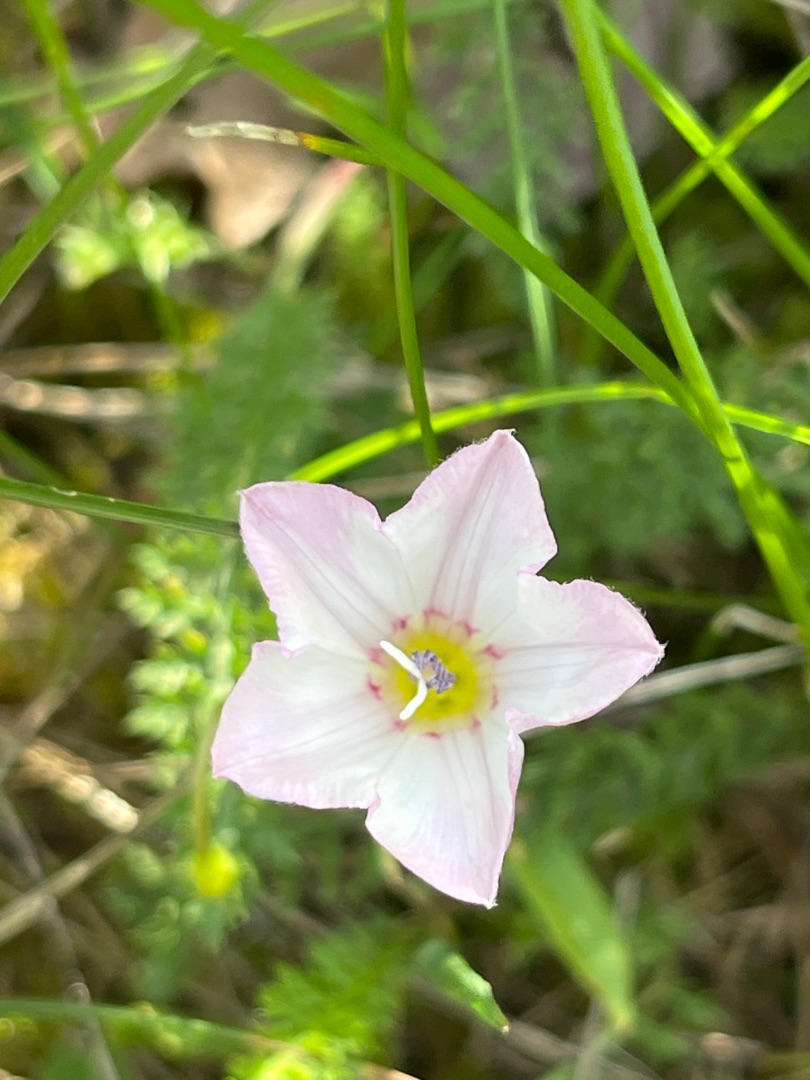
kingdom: Plantae
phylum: Tracheophyta
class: Magnoliopsida
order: Solanales
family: Convolvulaceae
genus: Convolvulus
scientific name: Convolvulus arvensis
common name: Ager-snerle
